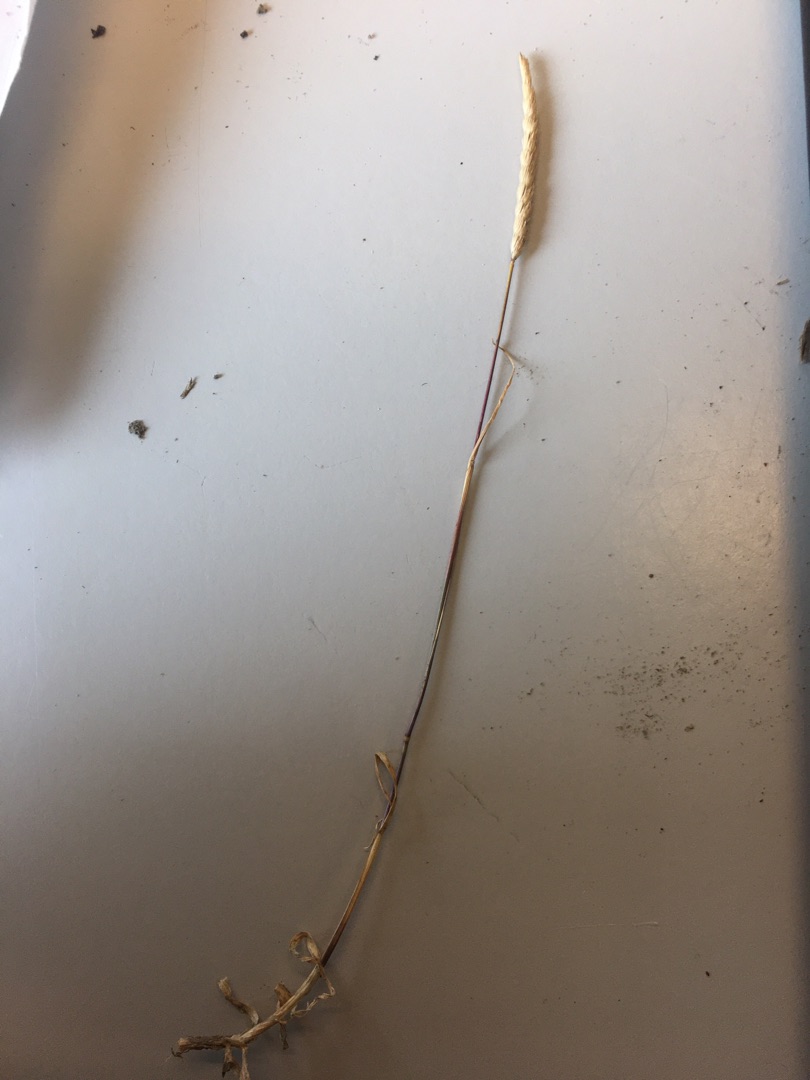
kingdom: Plantae
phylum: Tracheophyta
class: Liliopsida
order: Poales
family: Poaceae
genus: Cynosurus
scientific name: Cynosurus cristatus
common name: Kamgræs
